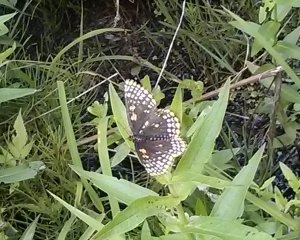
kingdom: Animalia
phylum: Arthropoda
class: Insecta
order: Lepidoptera
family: Nymphalidae
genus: Euphydryas
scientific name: Euphydryas phaeton
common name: Baltimore Checkerspot
